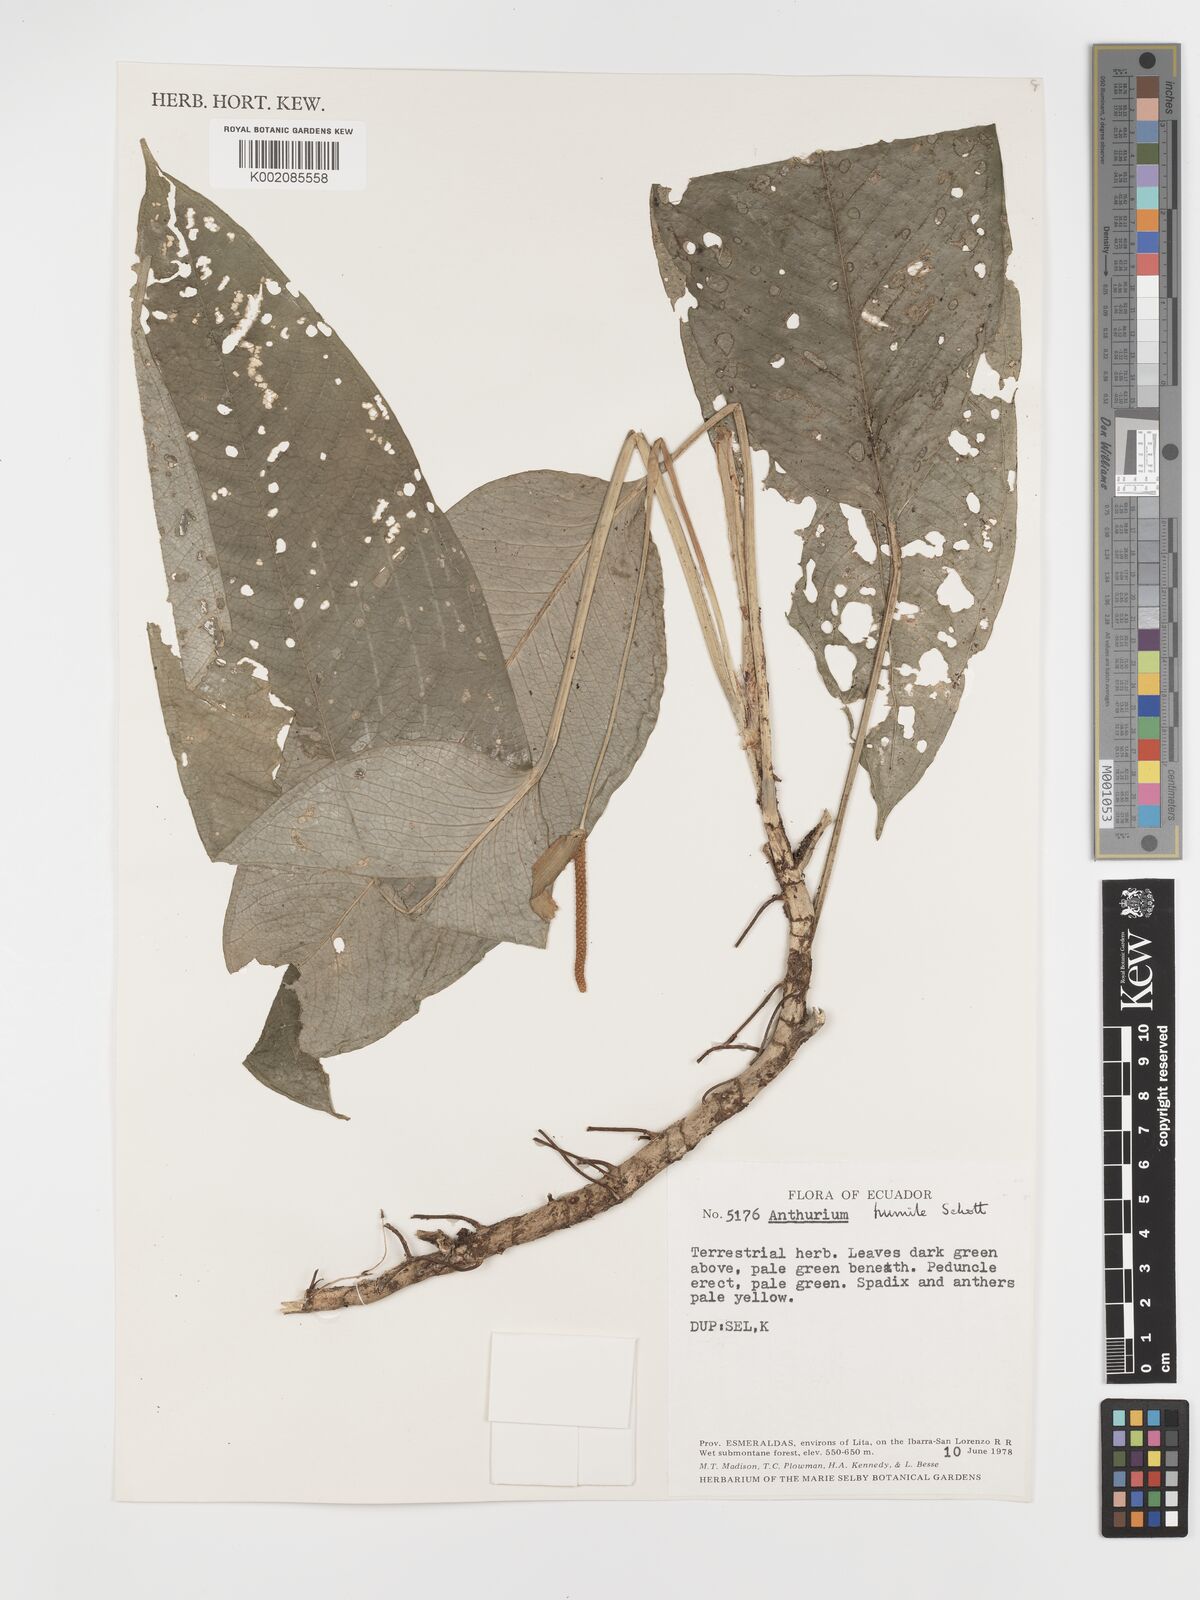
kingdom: Plantae
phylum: Tracheophyta
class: Liliopsida
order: Alismatales
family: Araceae
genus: Anthurium
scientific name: Anthurium amoenum
